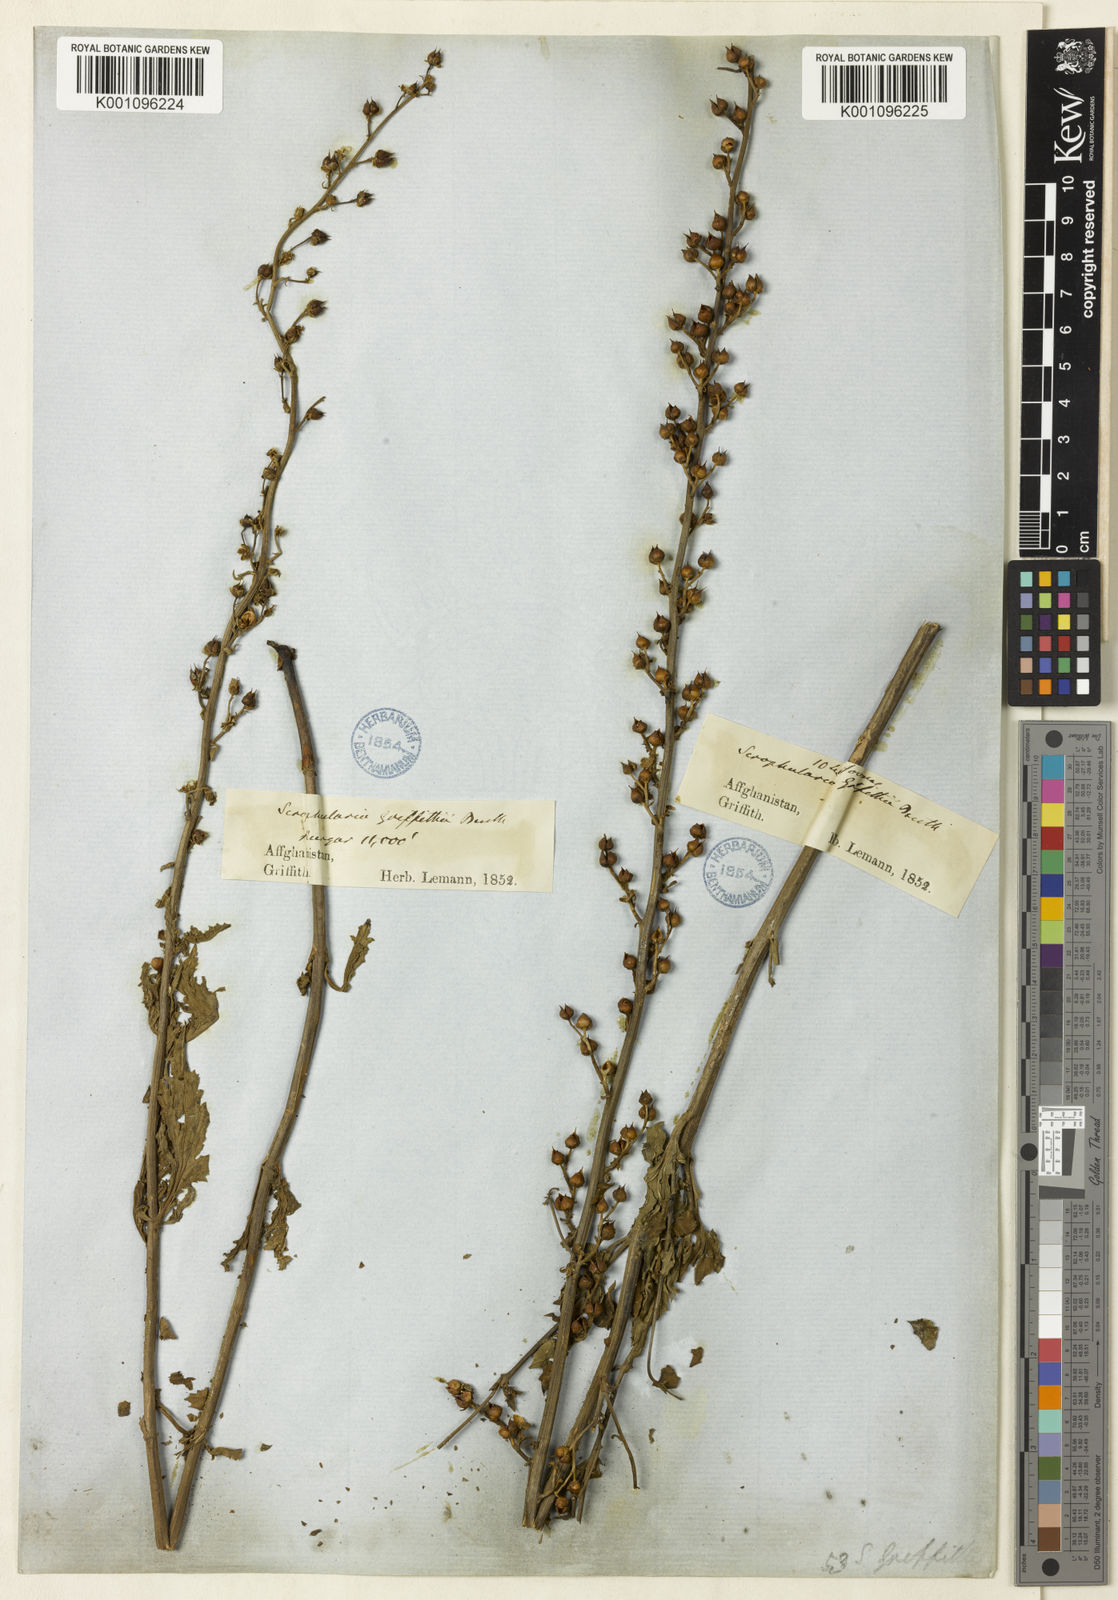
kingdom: Plantae
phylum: Tracheophyta
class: Magnoliopsida
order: Lamiales
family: Scrophulariaceae
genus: Scrophularia
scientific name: Scrophularia griffithii
